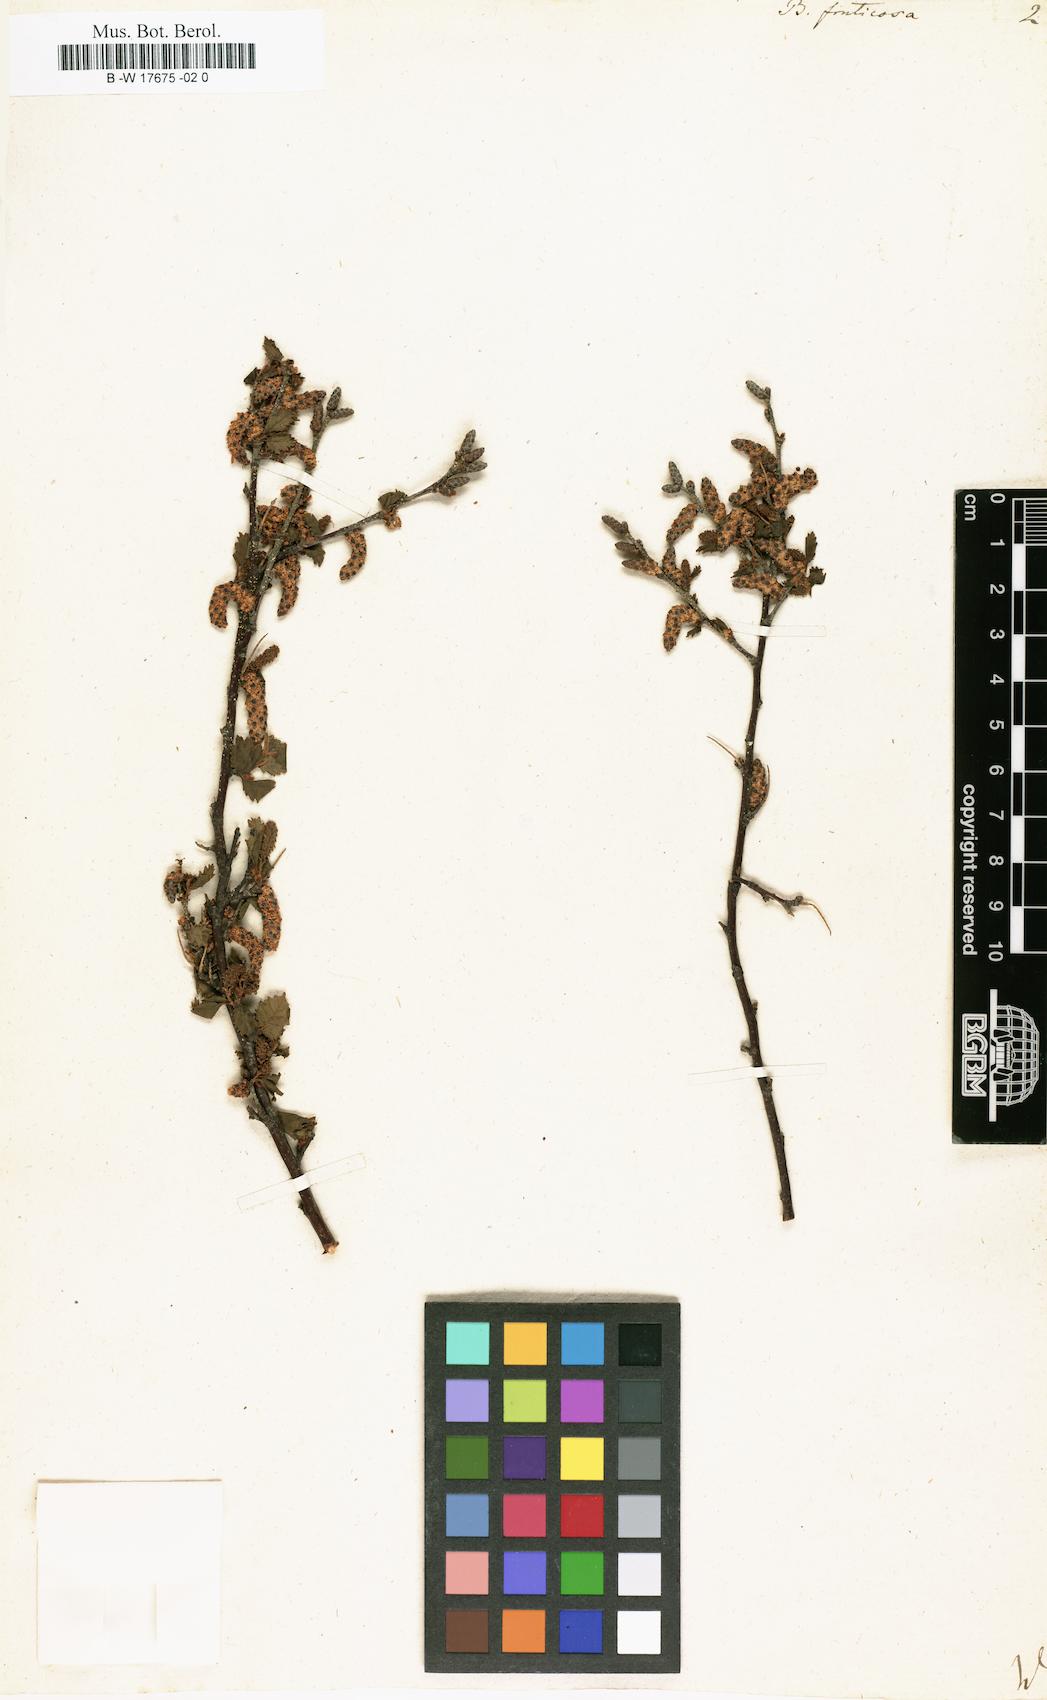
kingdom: Plantae
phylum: Tracheophyta
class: Magnoliopsida
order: Fagales
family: Betulaceae
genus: Betula
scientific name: Betula fruticosa
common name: Japanese bog birch
